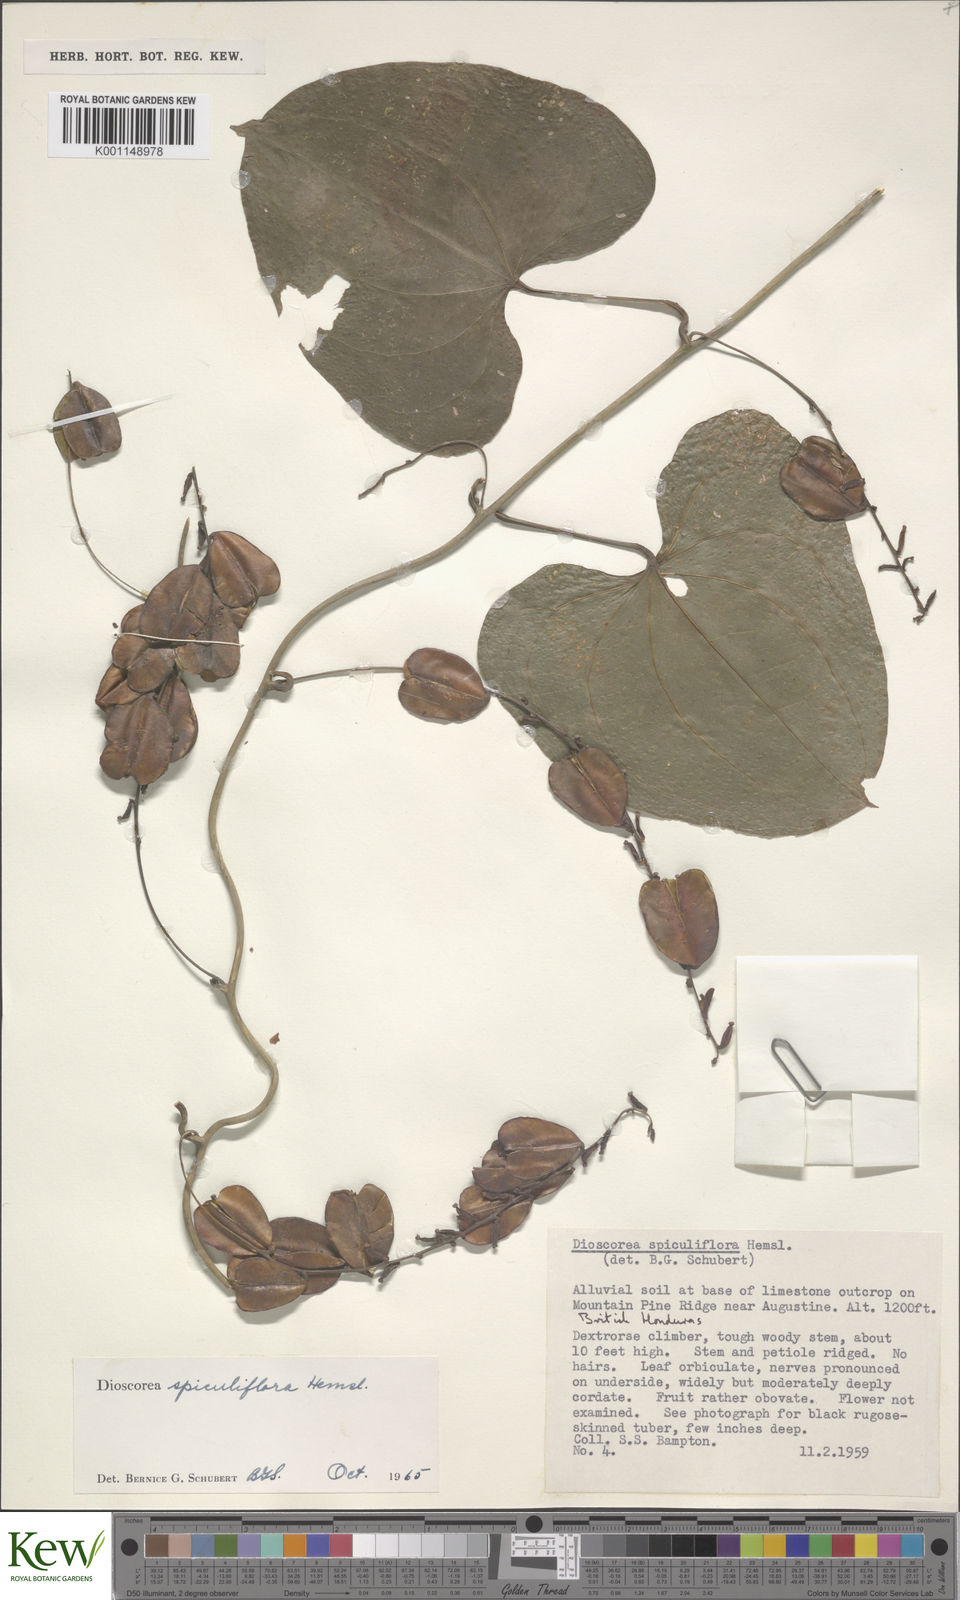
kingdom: Plantae
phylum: Tracheophyta
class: Liliopsida
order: Dioscoreales
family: Dioscoreaceae
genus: Dioscorea
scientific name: Dioscorea spiculiflora
